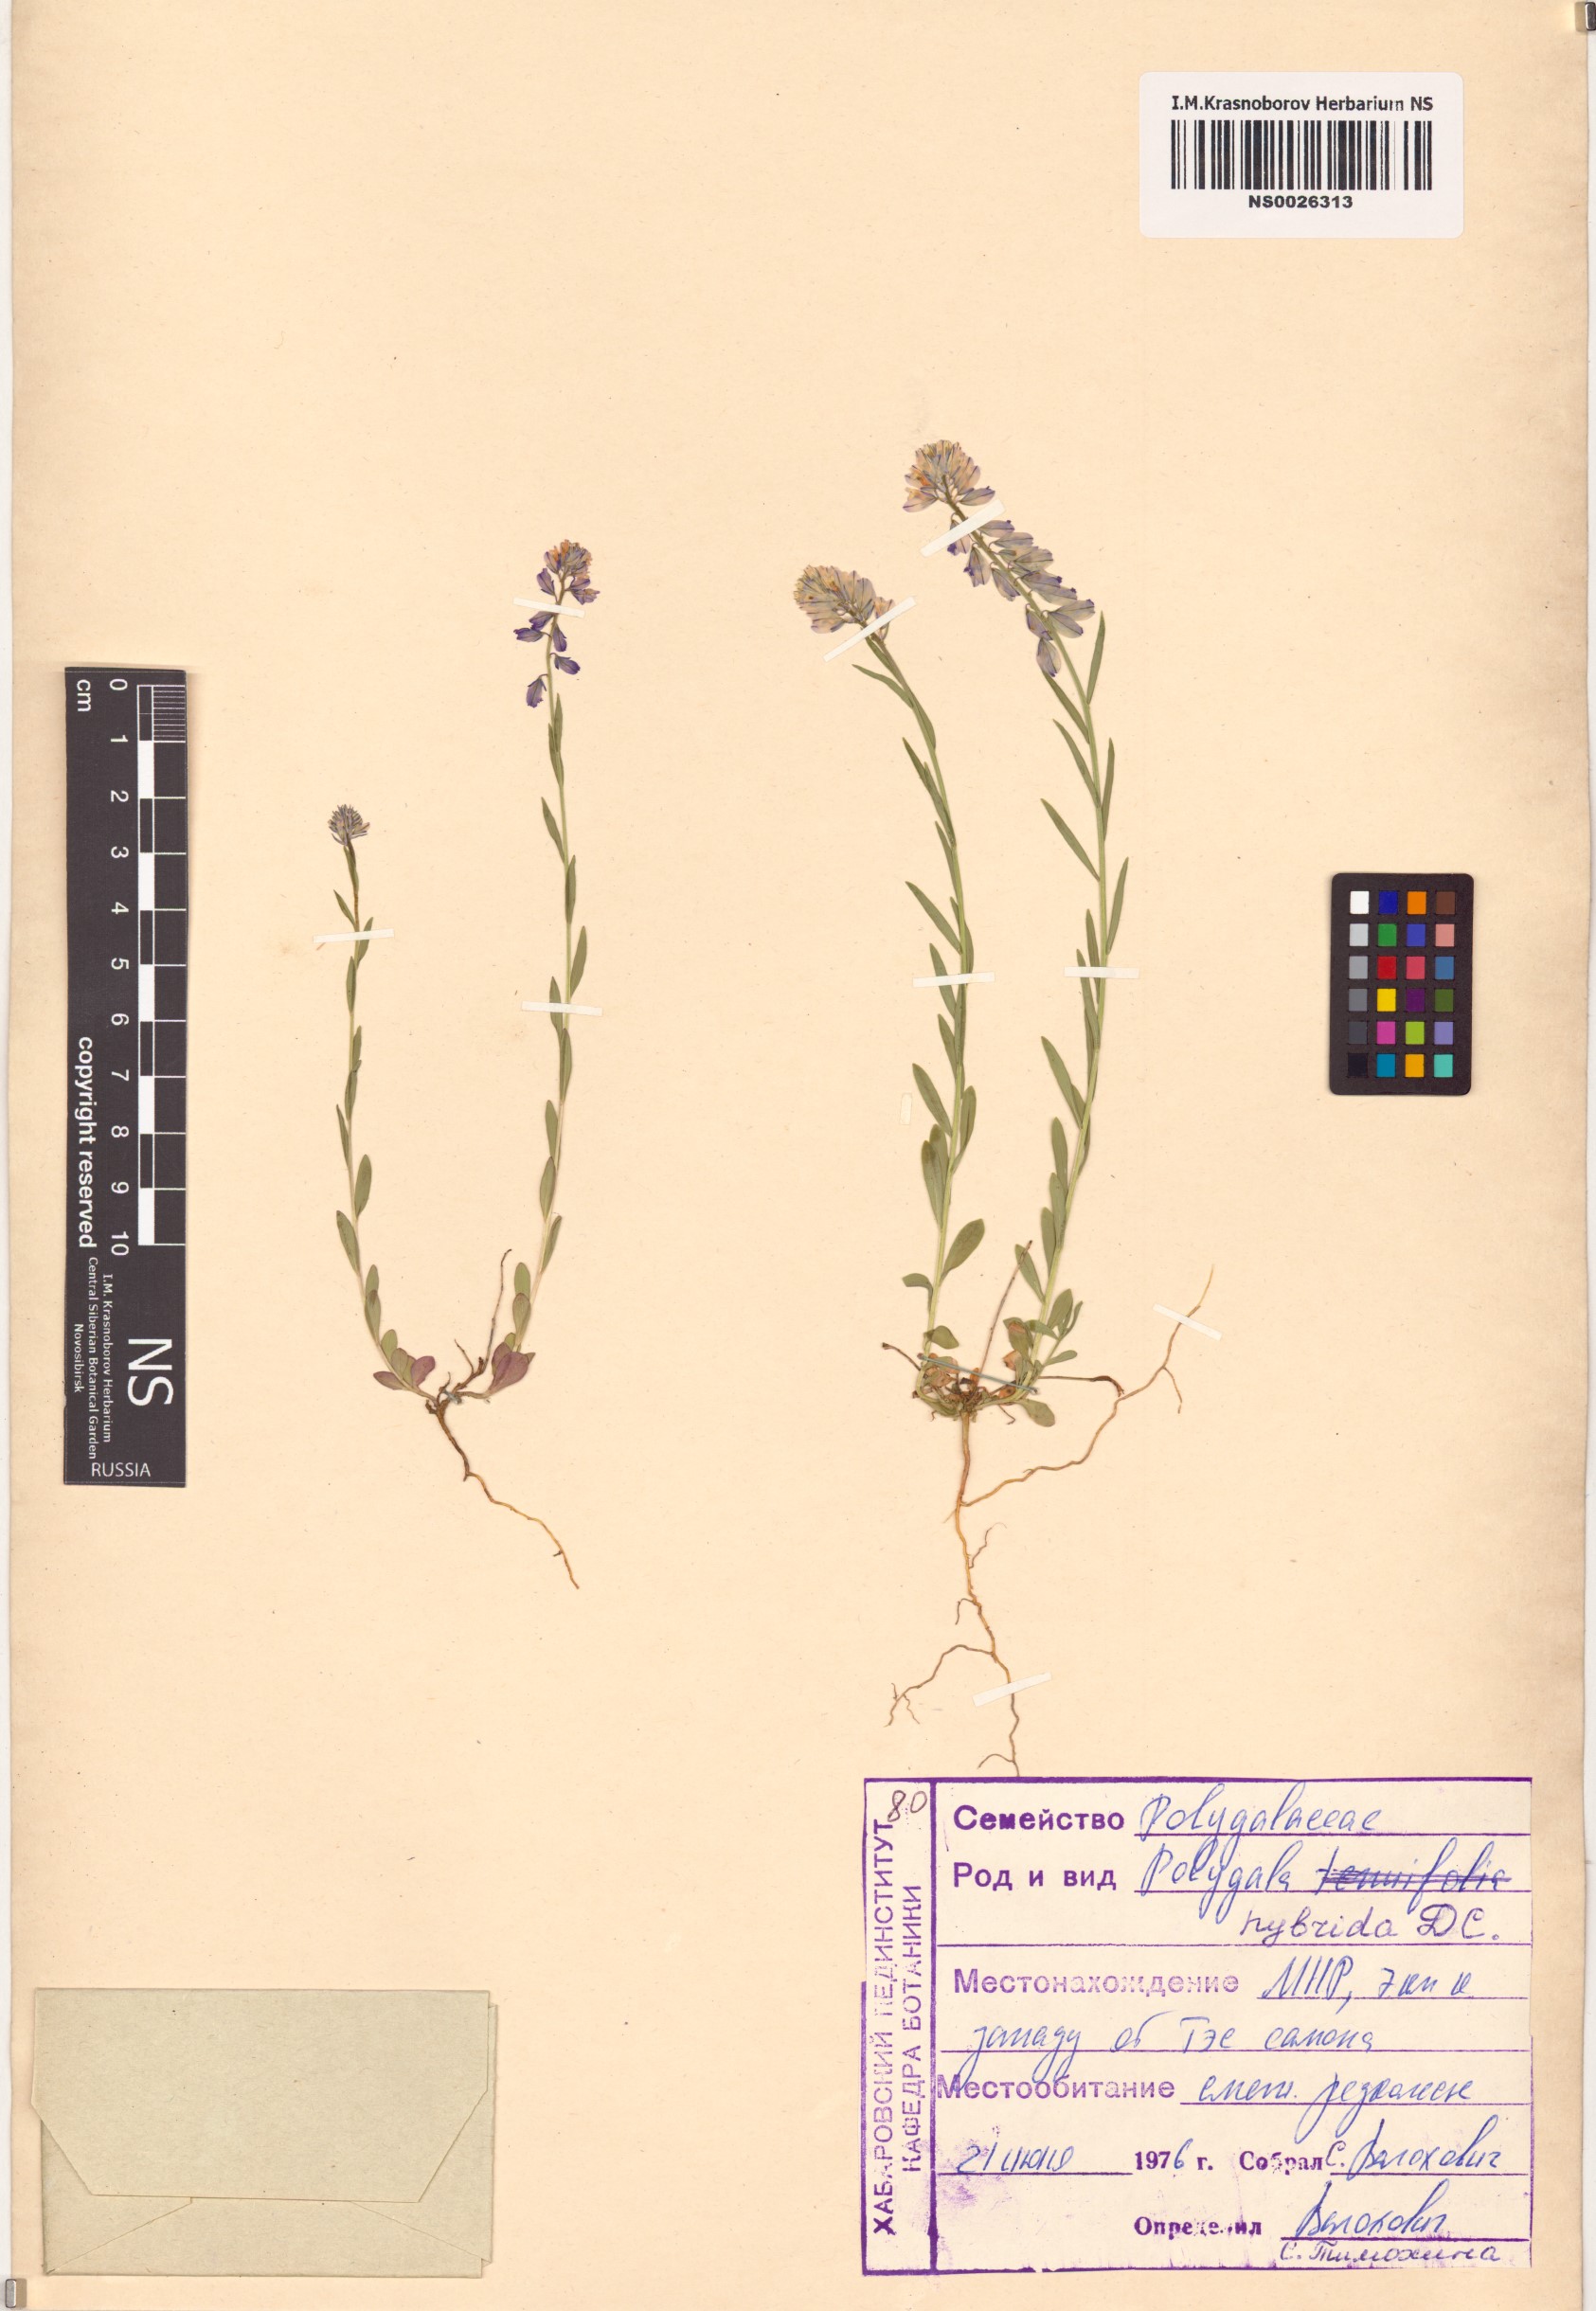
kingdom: Plantae
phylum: Tracheophyta
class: Magnoliopsida
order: Fabales
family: Polygalaceae
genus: Polygala
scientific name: Polygala comosa
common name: Tufted milkwort
